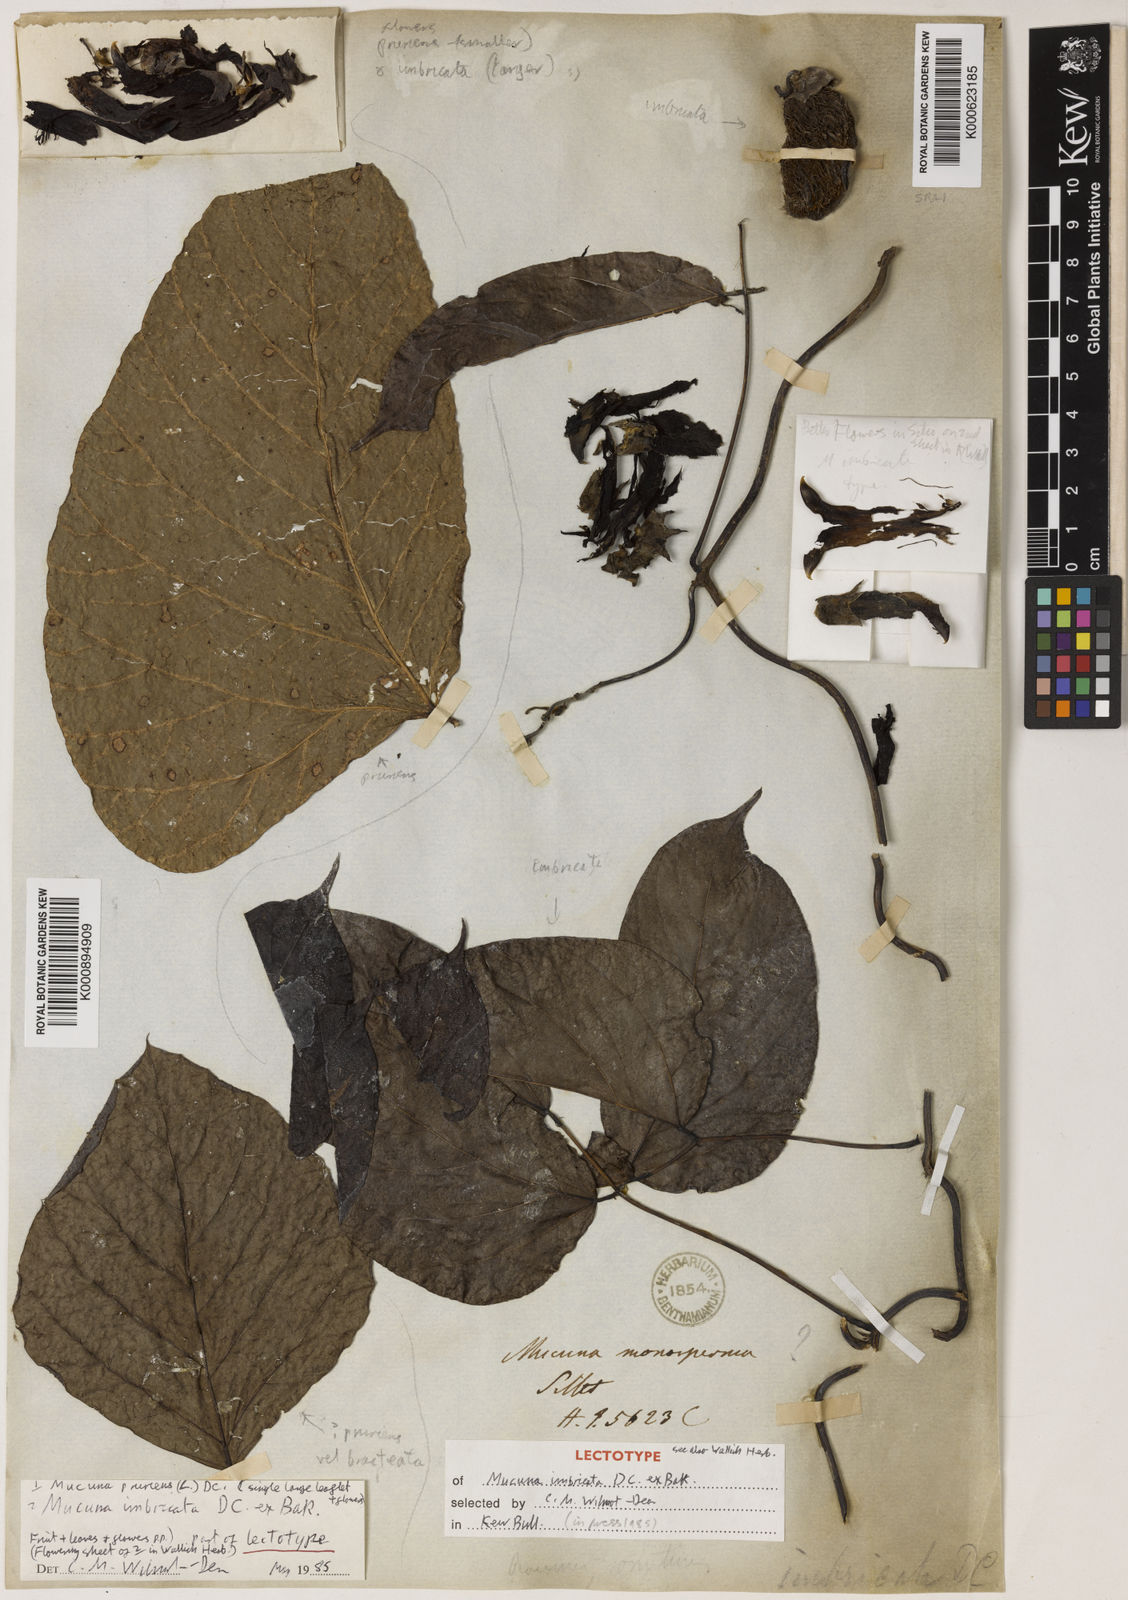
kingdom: Plantae
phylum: Tracheophyta
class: Magnoliopsida
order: Fabales
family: Fabaceae
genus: Mucuna
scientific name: Mucuna imbricata
